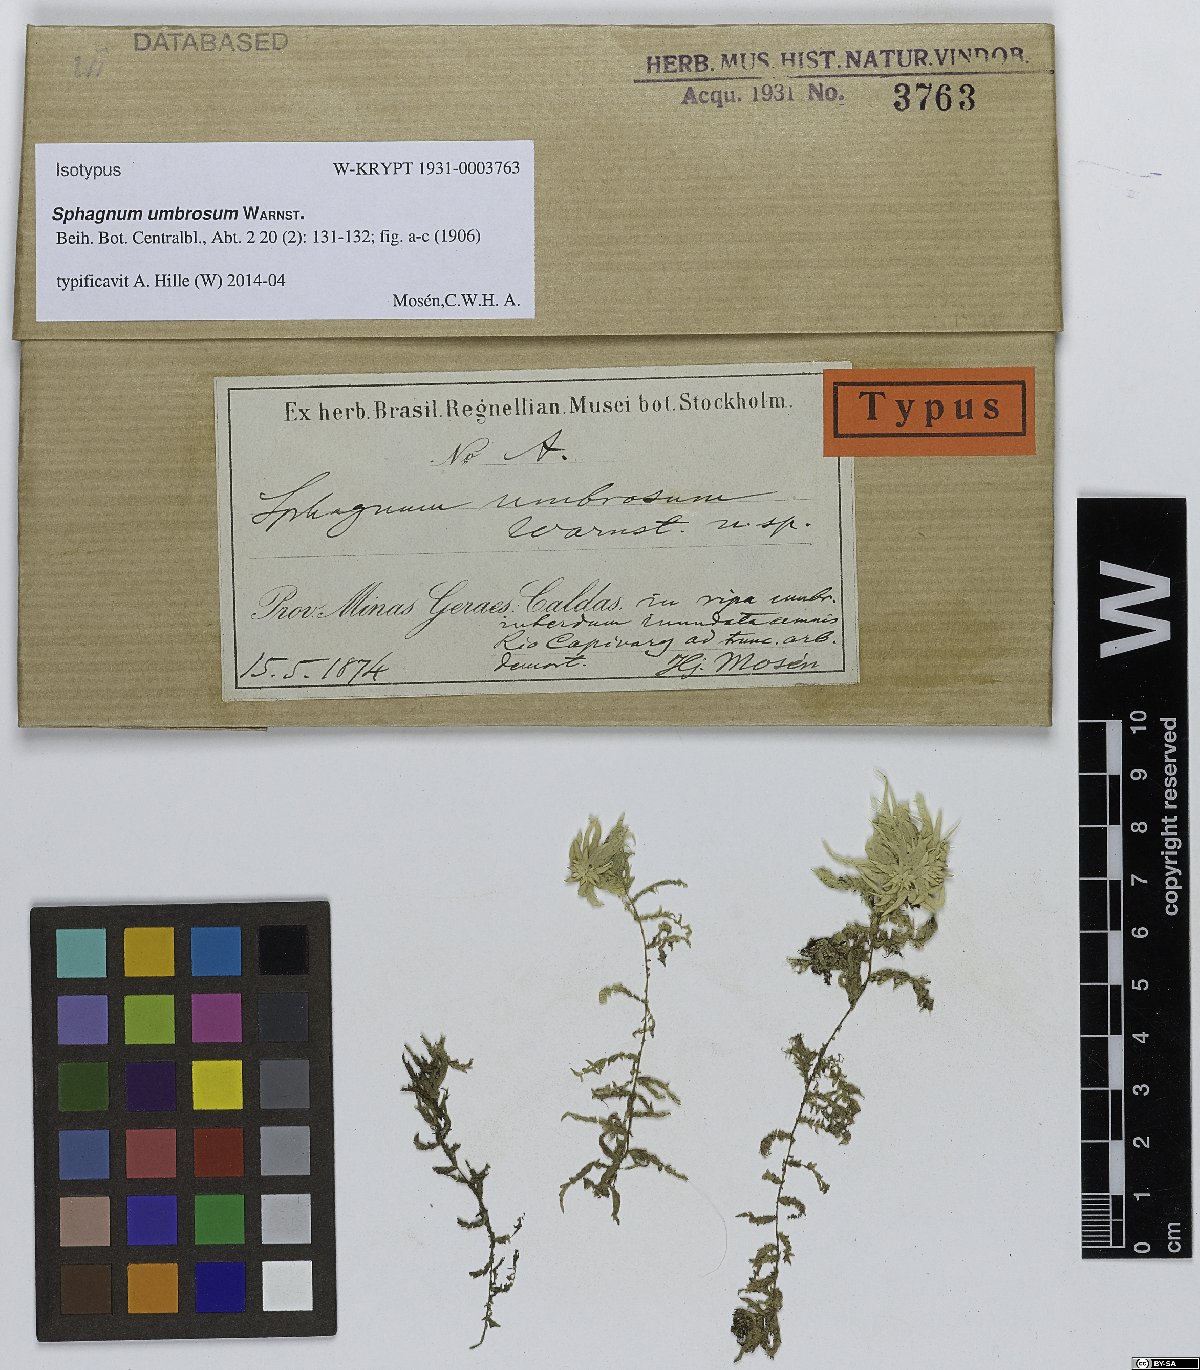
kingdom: Plantae
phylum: Bryophyta
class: Sphagnopsida
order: Sphagnales
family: Sphagnaceae
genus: Sphagnum
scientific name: Sphagnum platyphylloides
